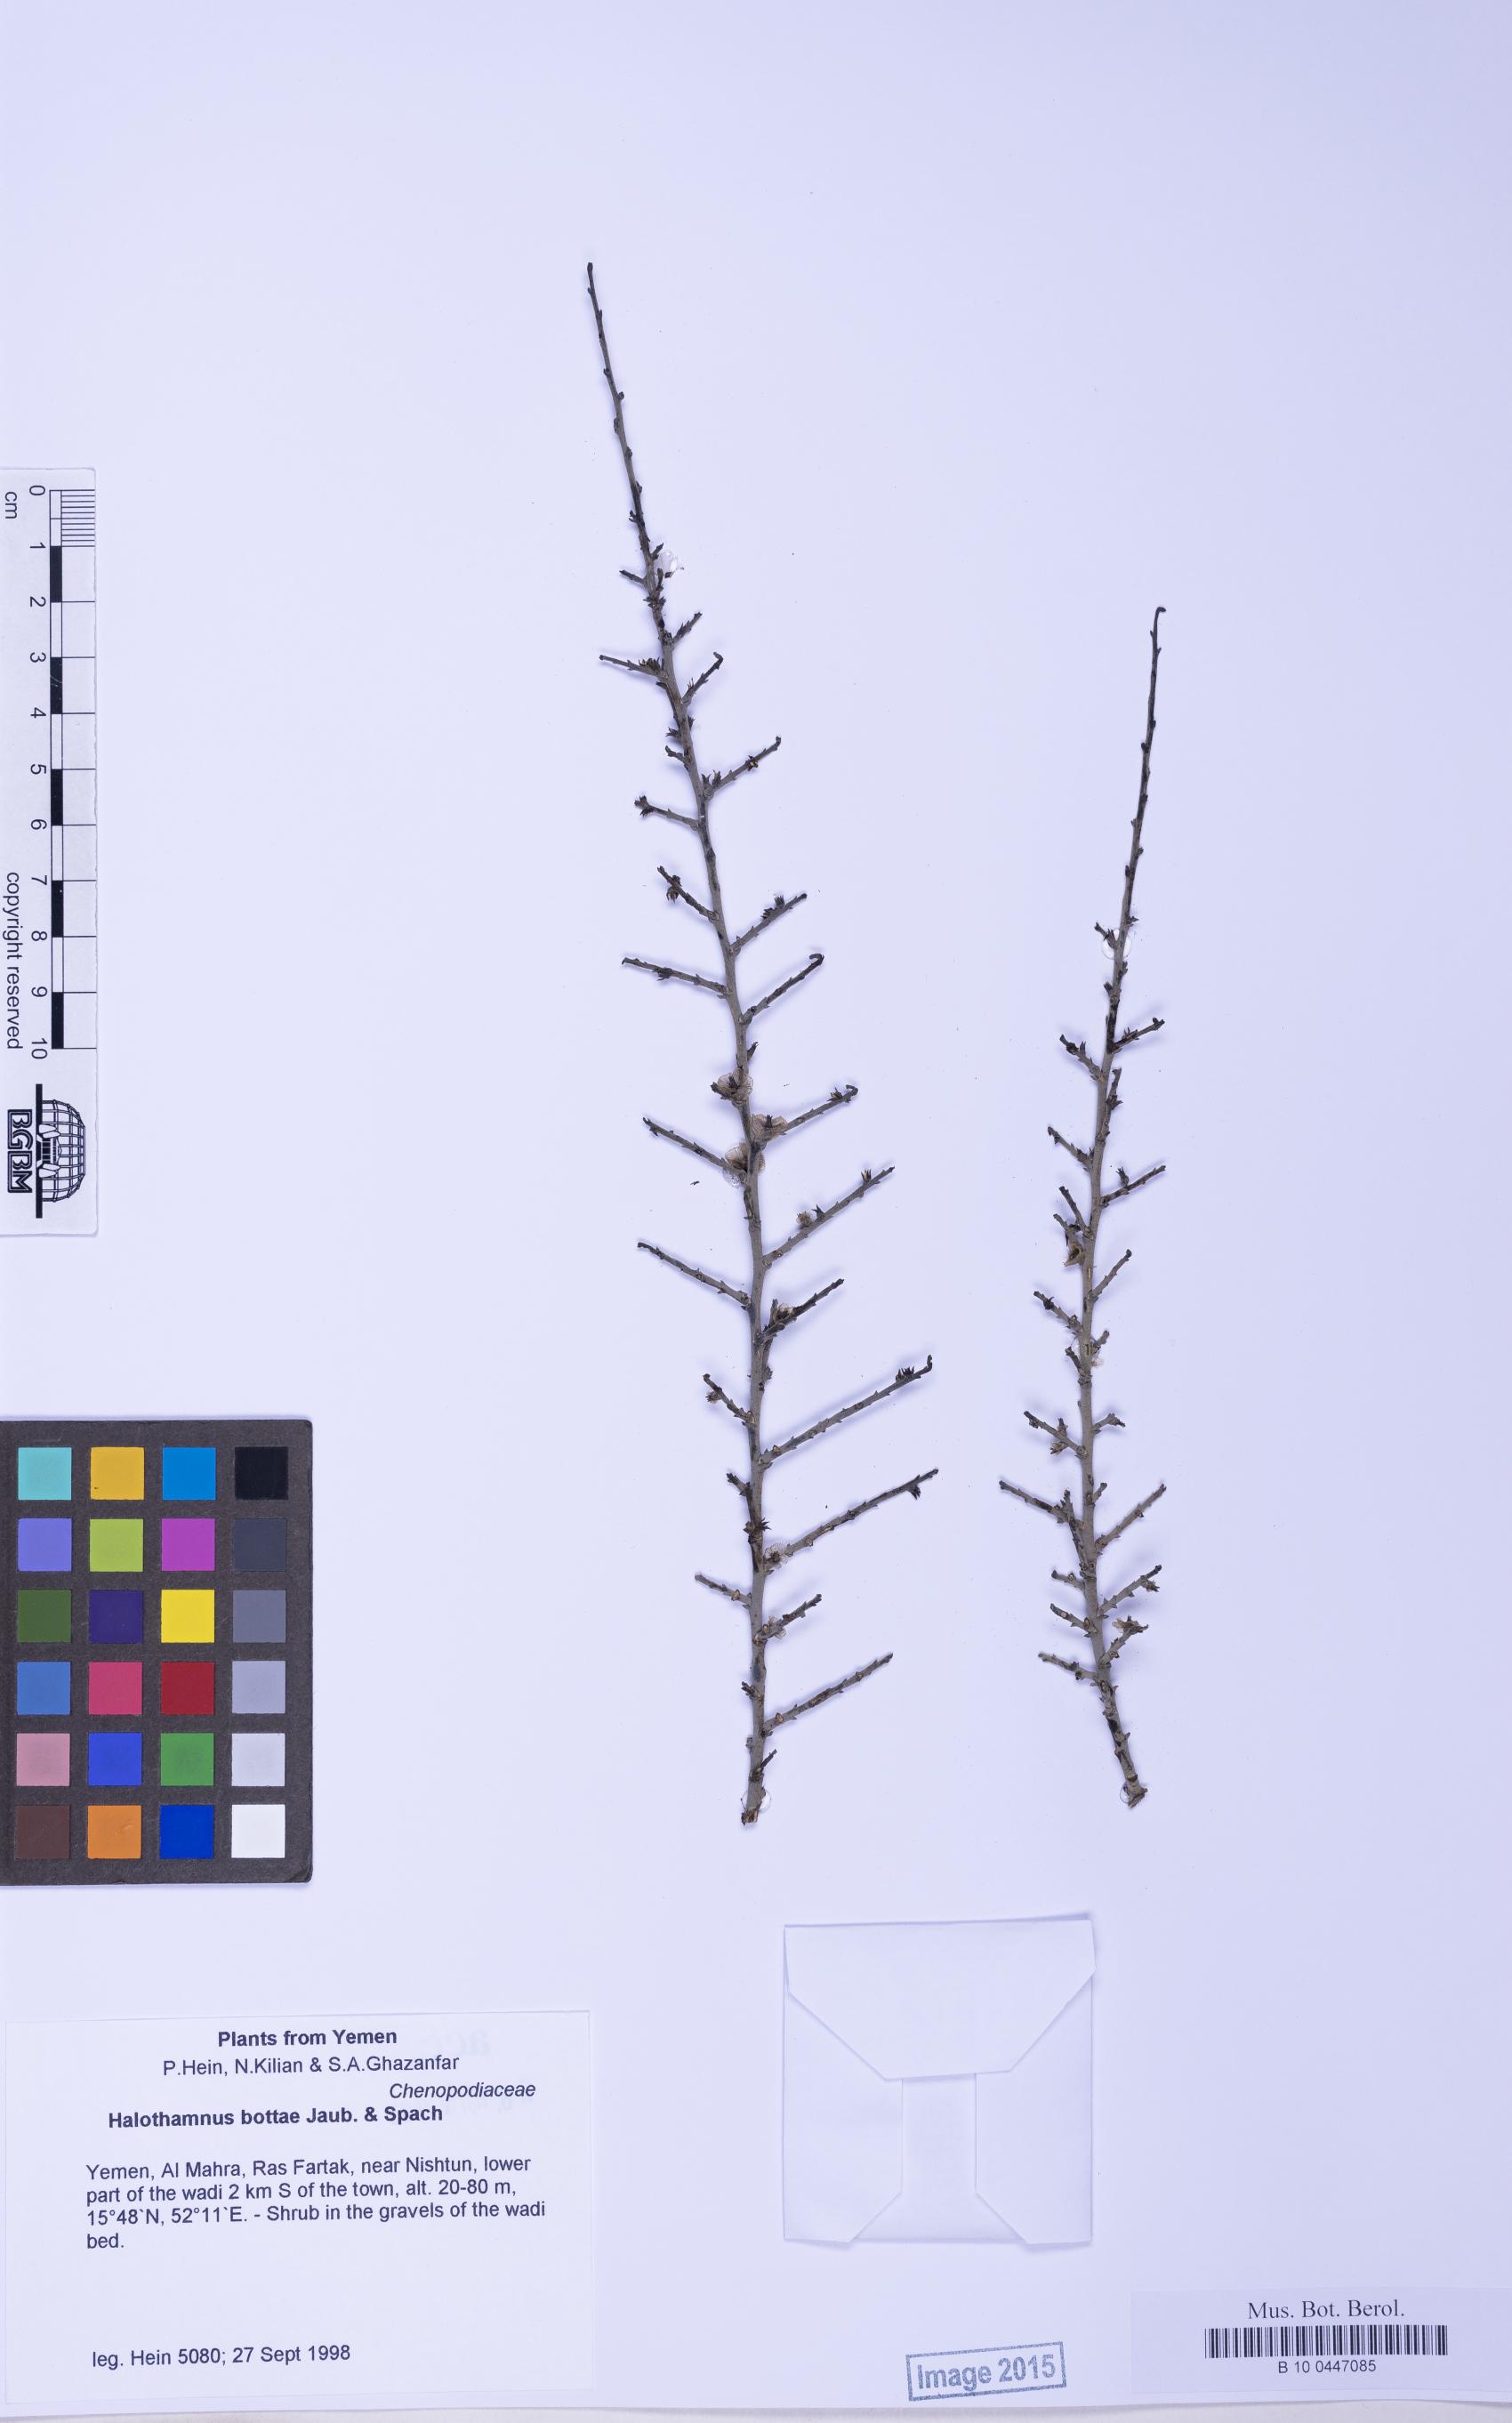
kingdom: Plantae
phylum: Tracheophyta
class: Magnoliopsida
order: Caryophyllales
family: Amaranthaceae
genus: Halothamnus
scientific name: Halothamnus bottae
